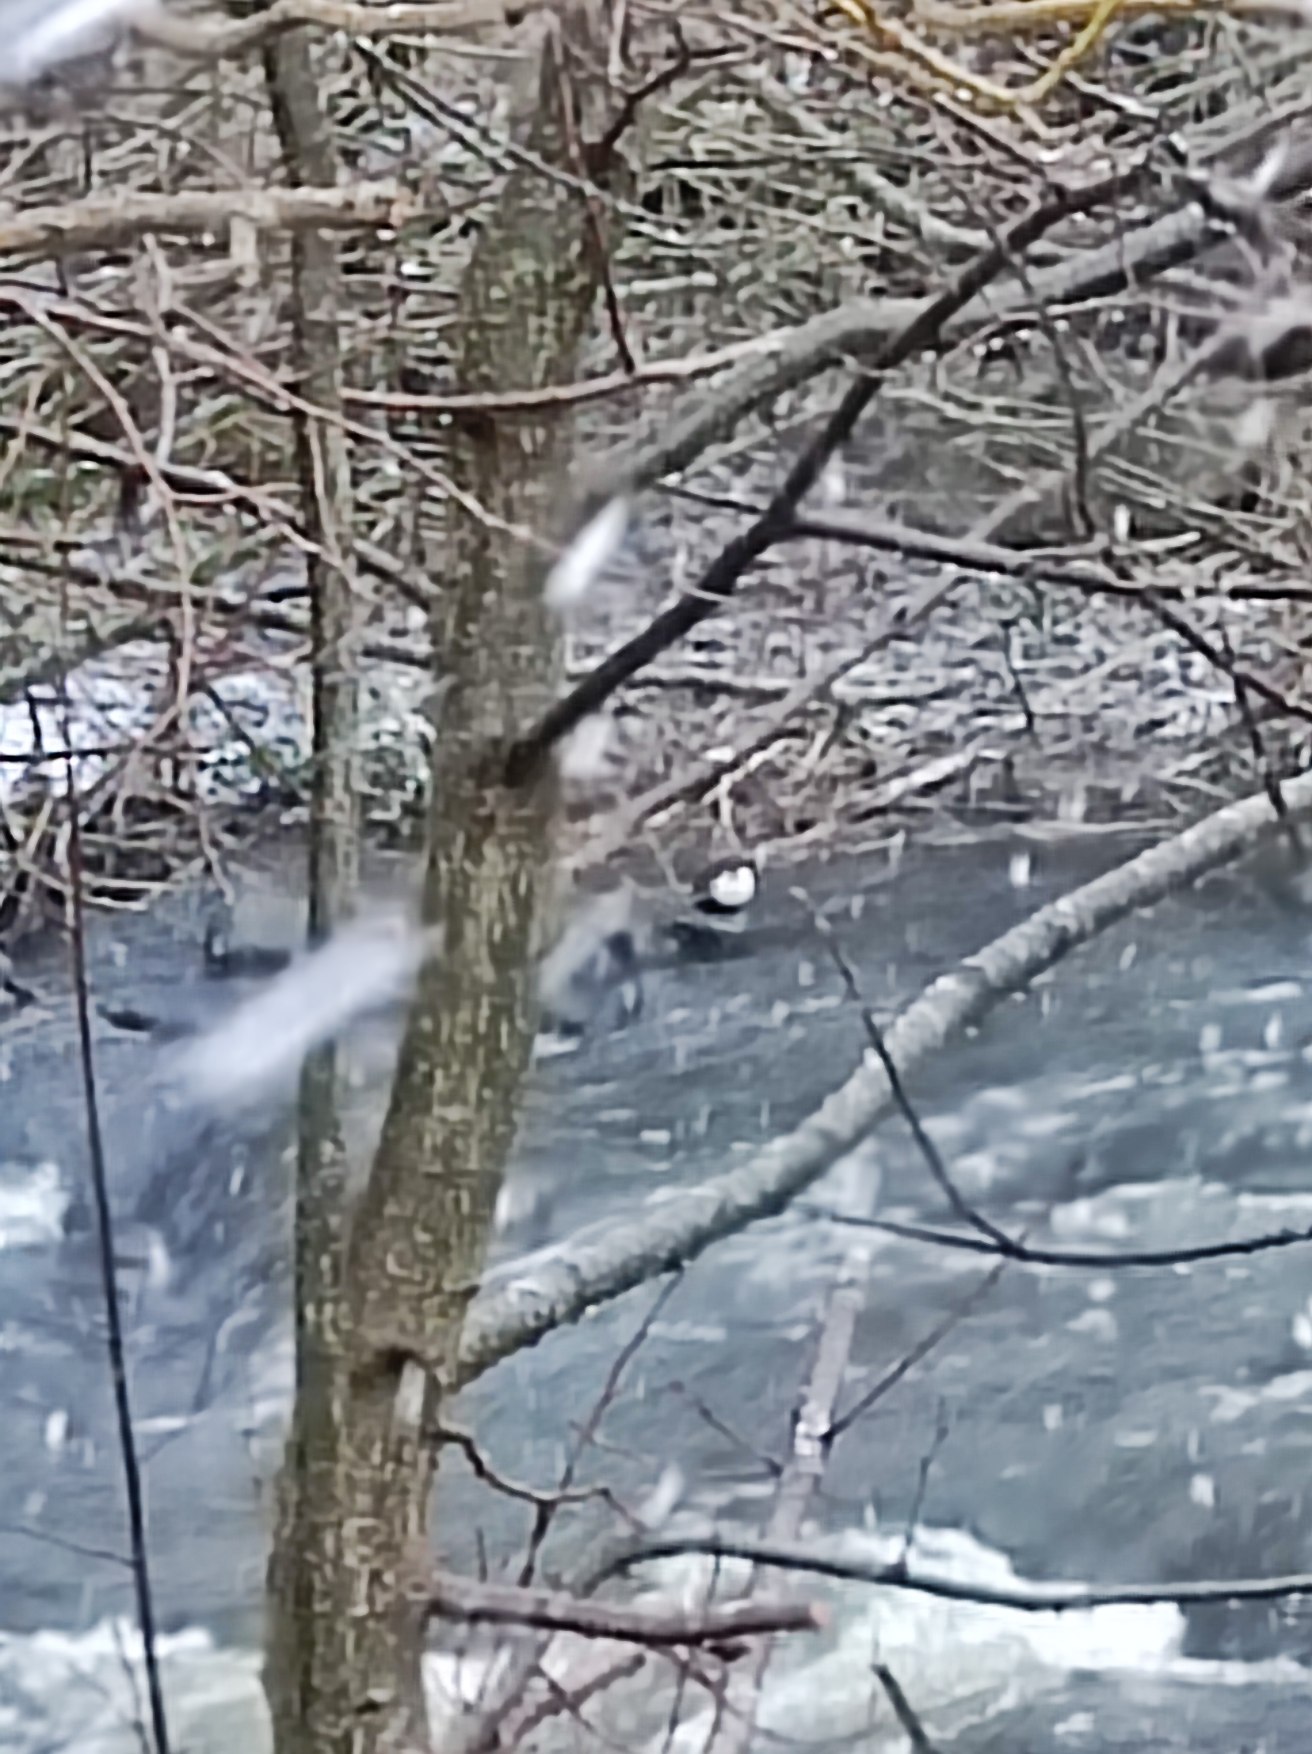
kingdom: Animalia
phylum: Chordata
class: Aves
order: Passeriformes
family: Cinclidae
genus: Cinclus
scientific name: Cinclus cinclus
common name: Vandstær
